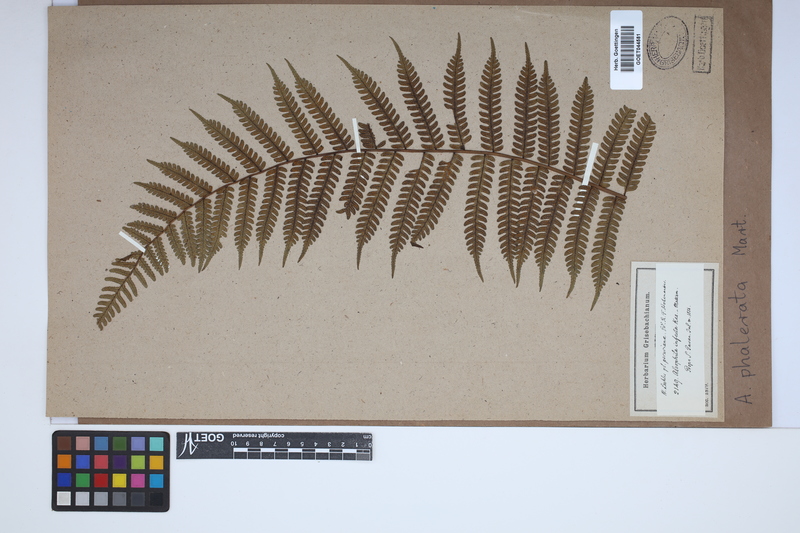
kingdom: Plantae
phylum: Tracheophyta
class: Polypodiopsida
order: Cyatheales
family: Cyatheaceae
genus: Cyathea
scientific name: Cyathea phalerata
